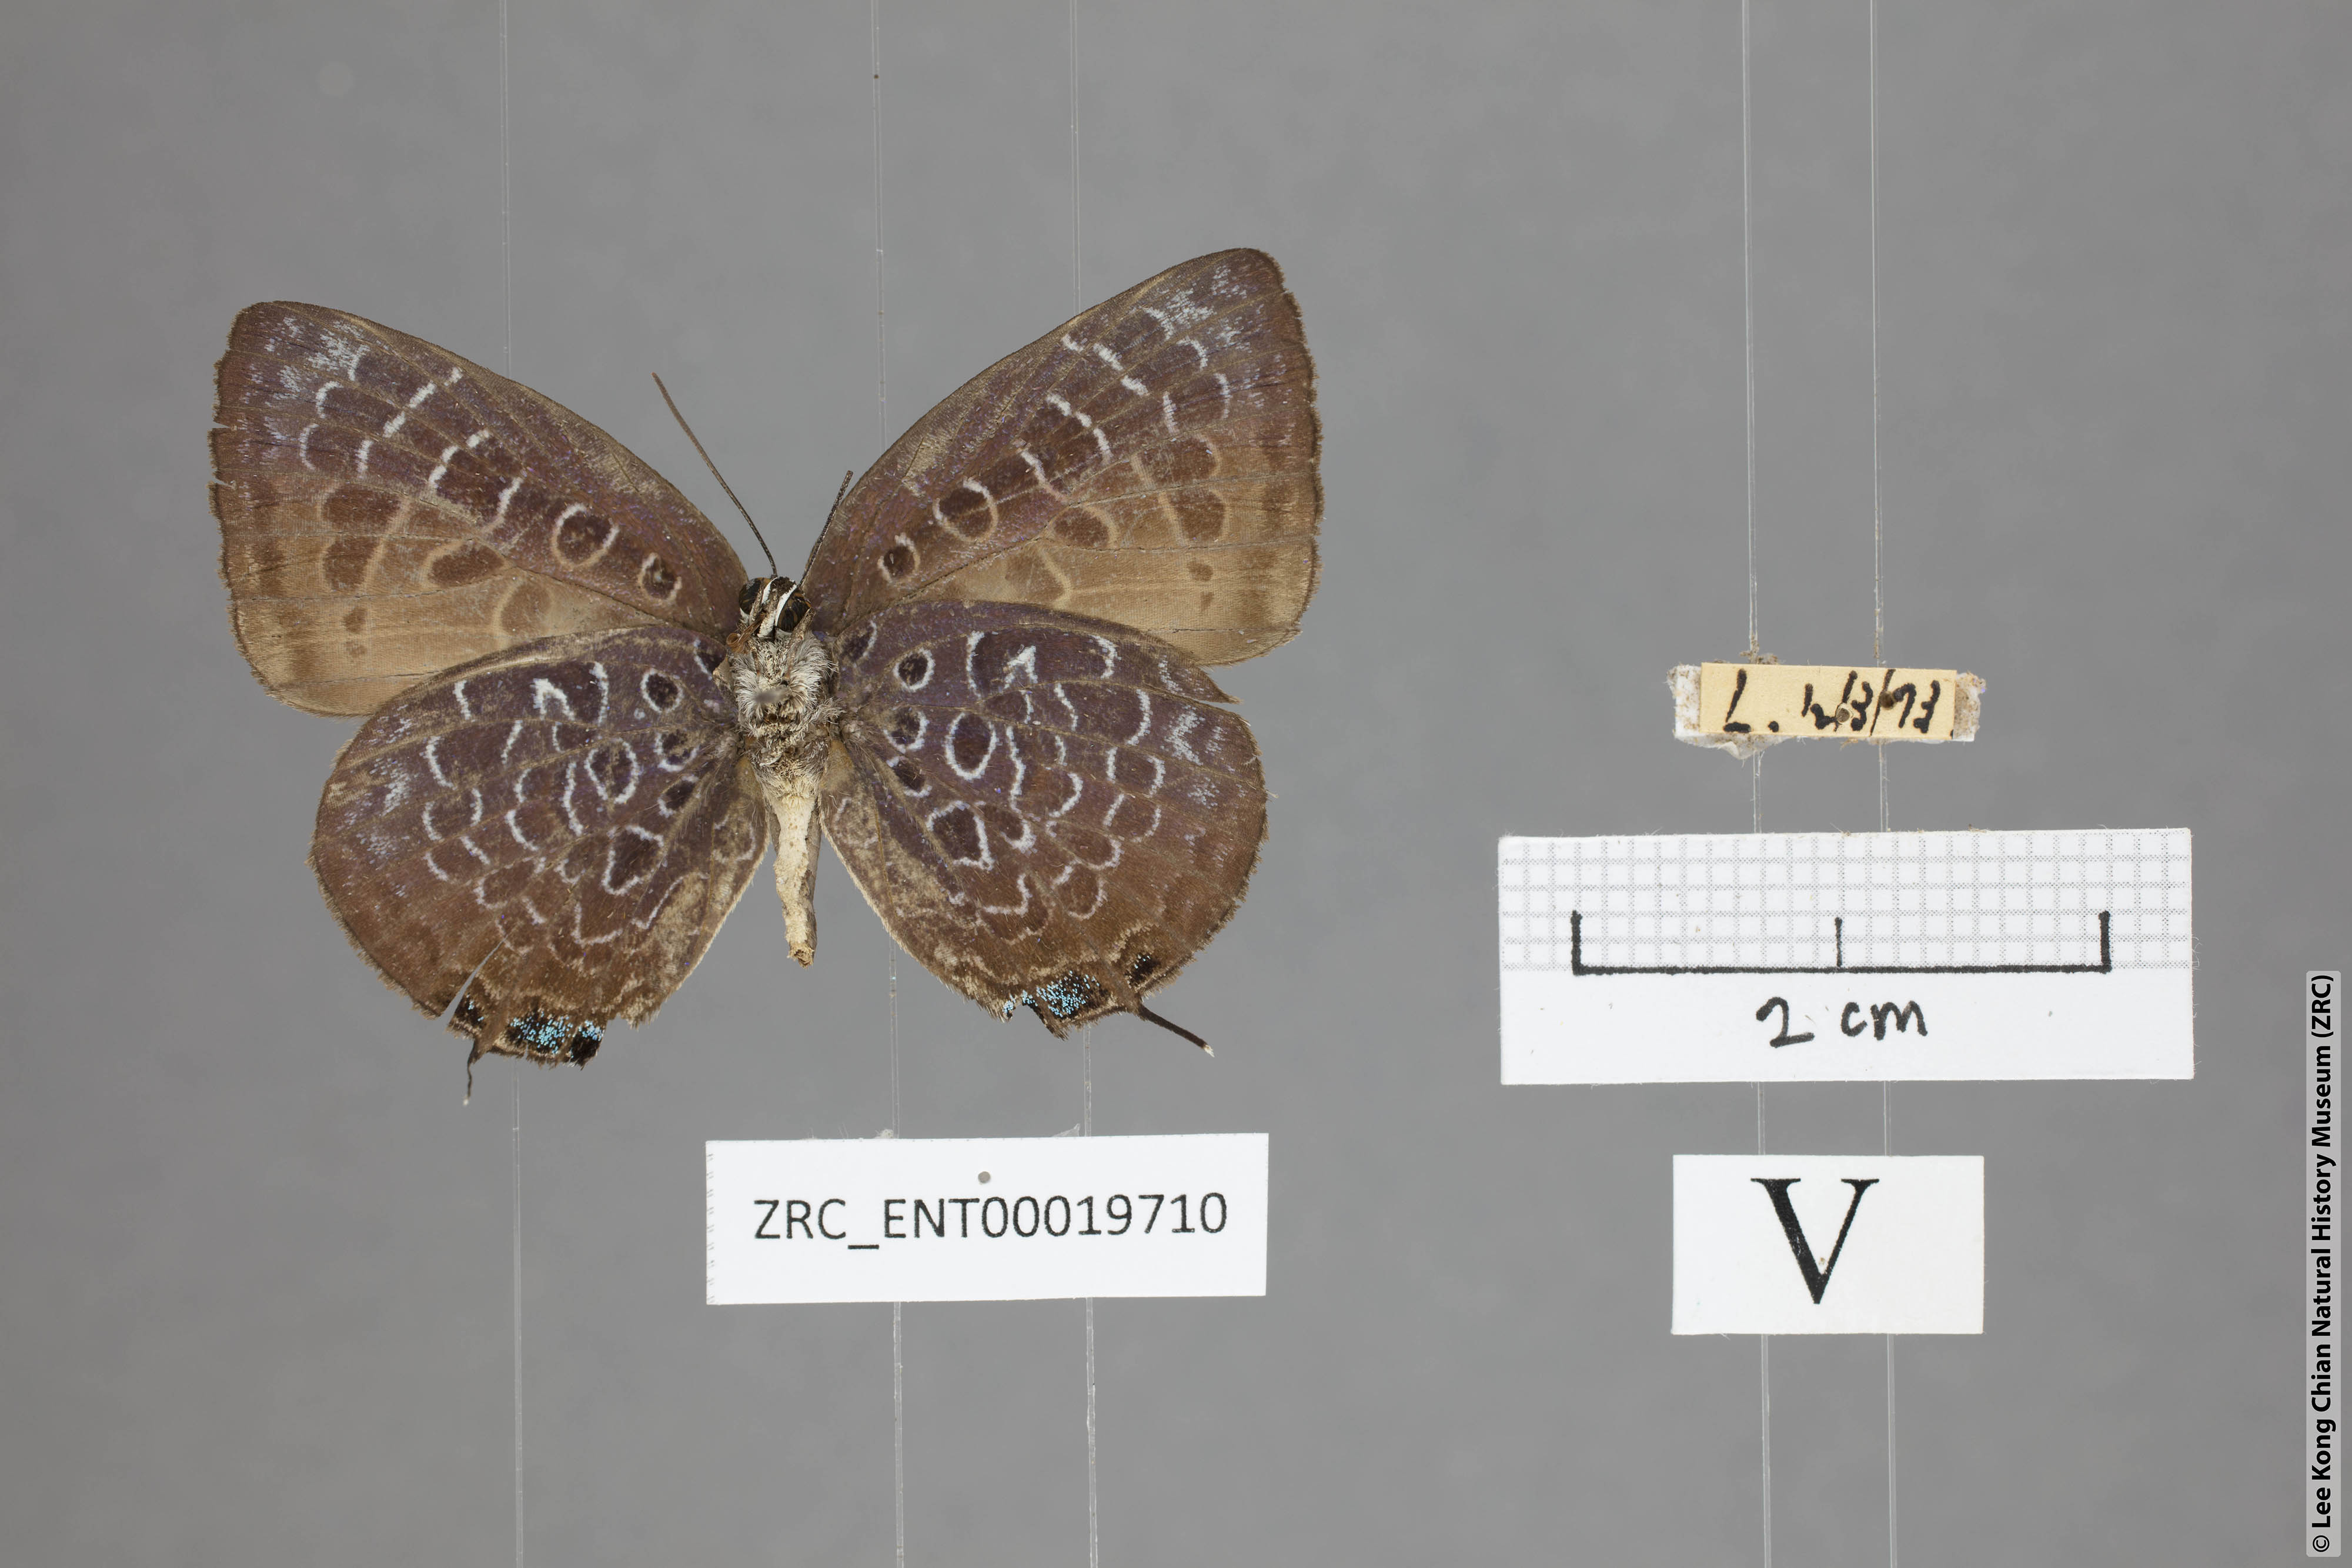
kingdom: Animalia
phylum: Arthropoda
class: Insecta
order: Lepidoptera
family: Lycaenidae
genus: Arhopala
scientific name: Arhopala myrzala
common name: Malayan oakblue
